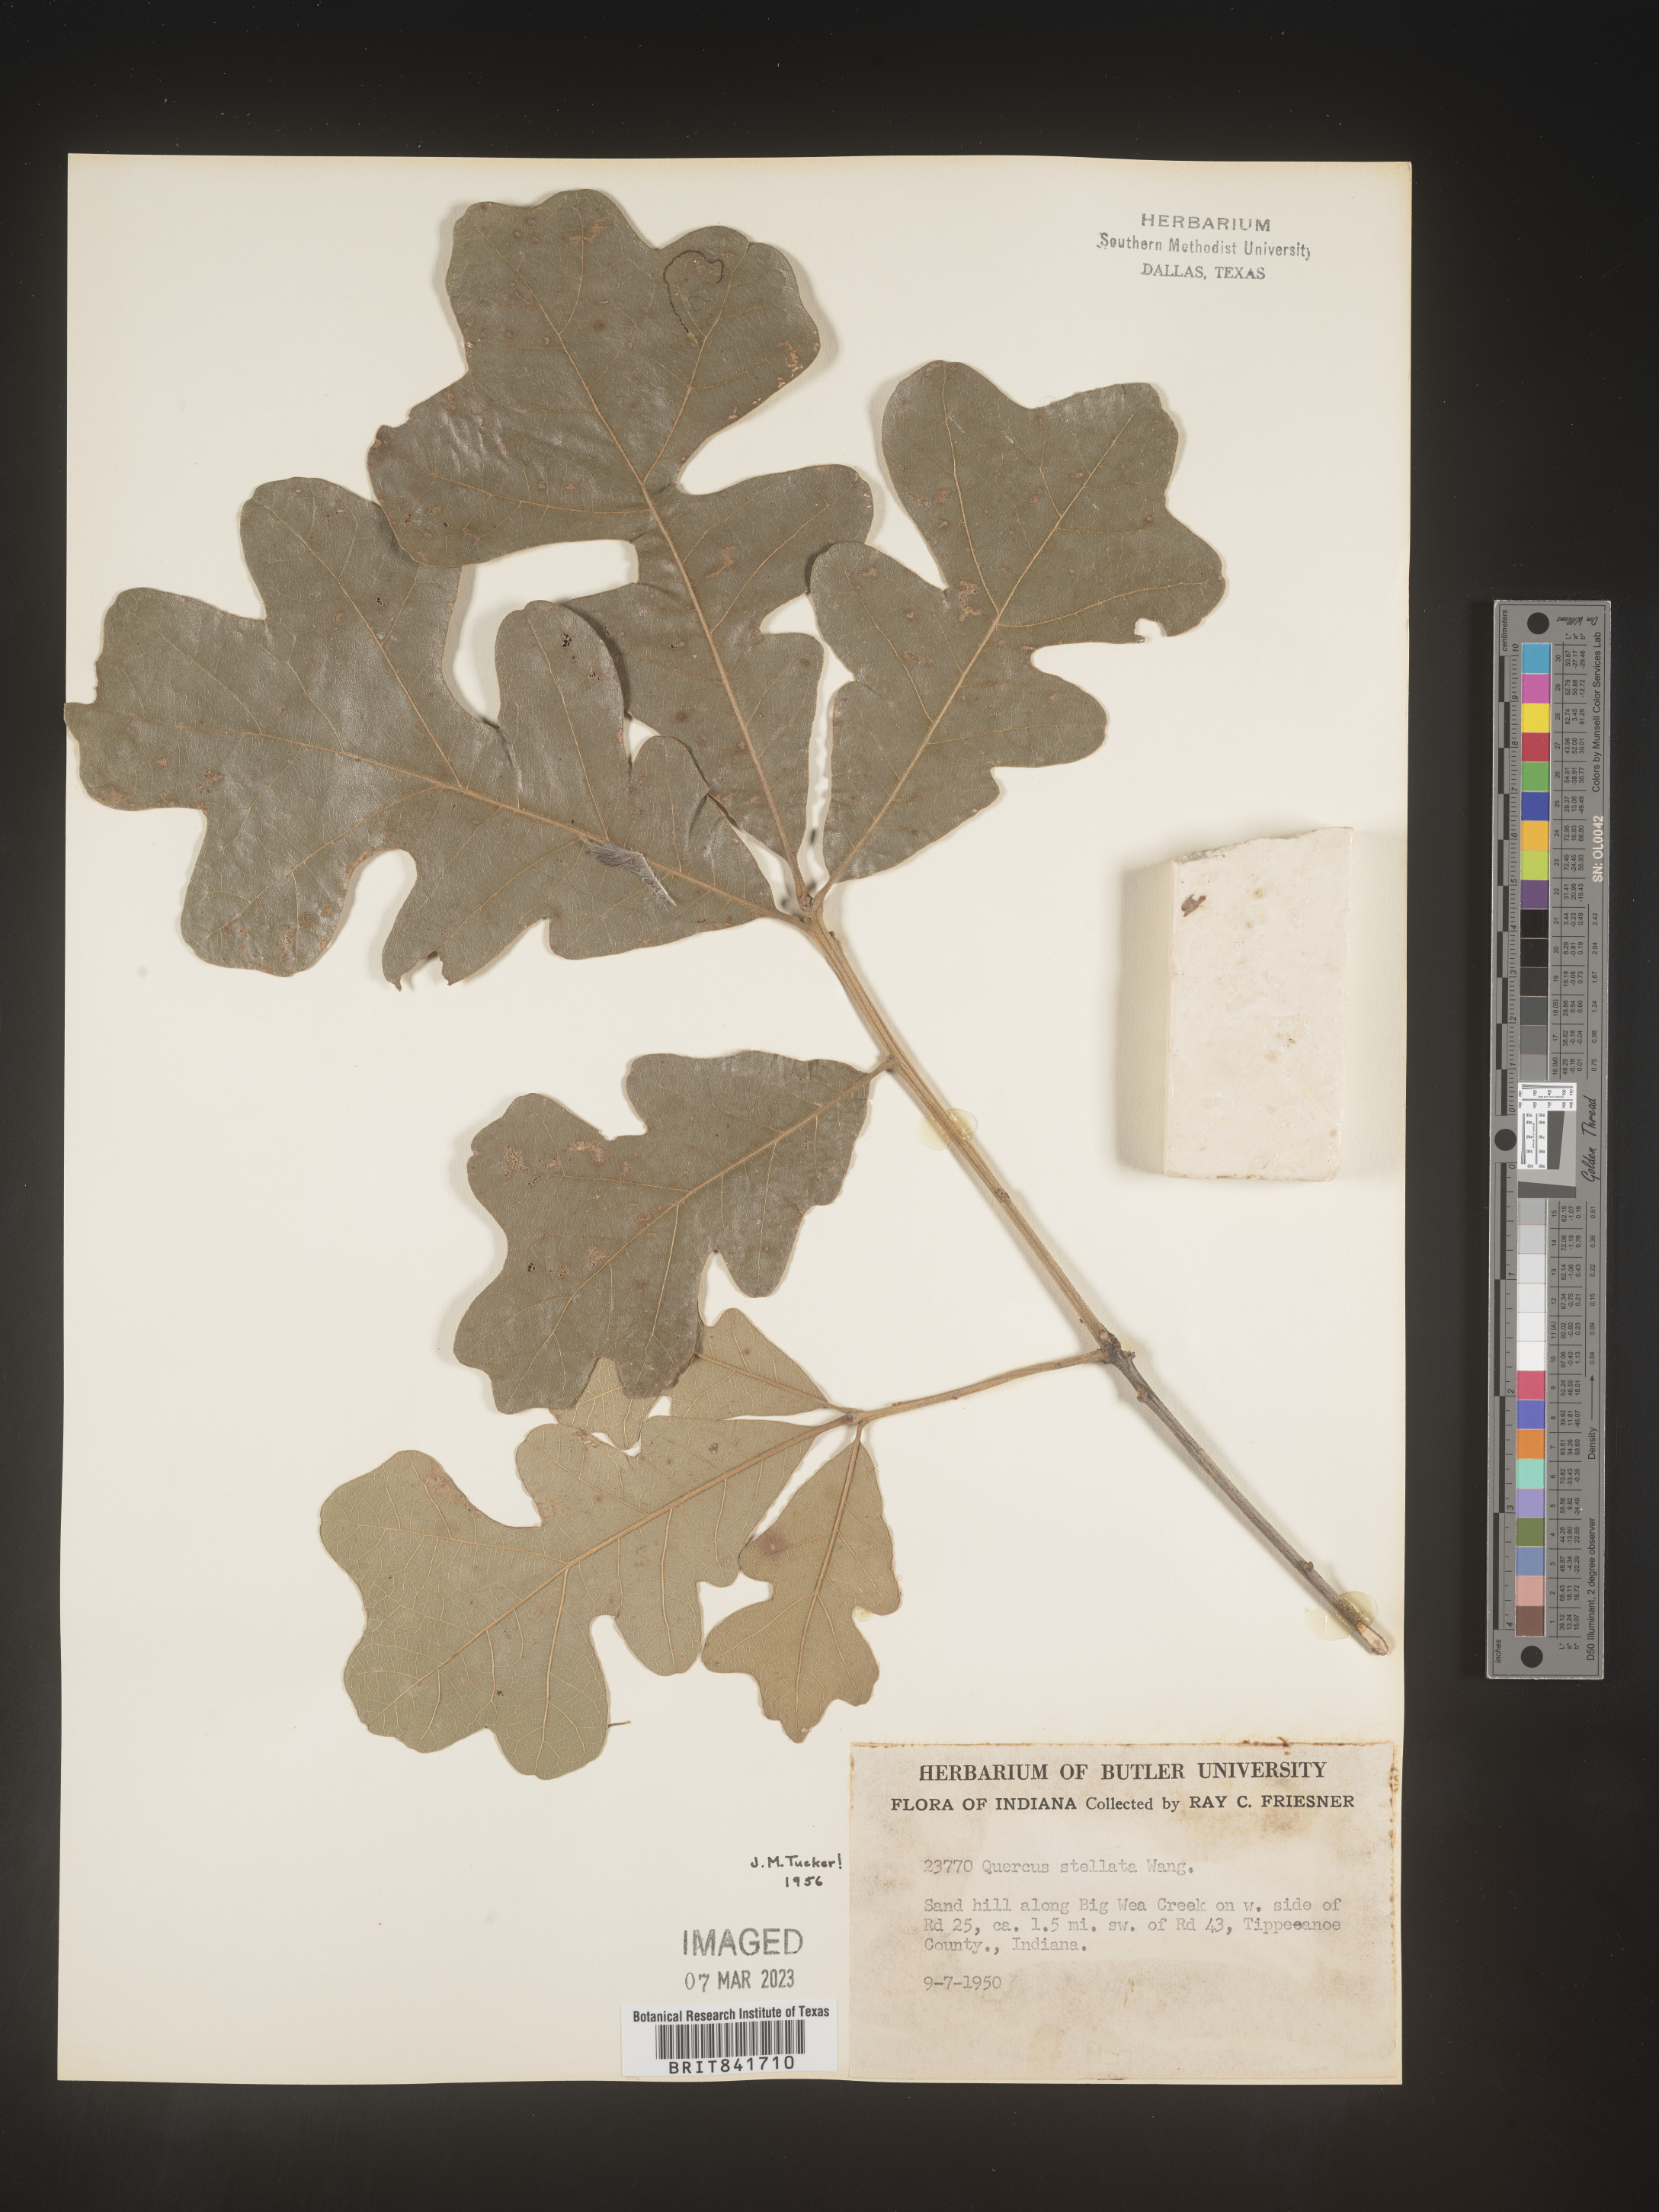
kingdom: Plantae
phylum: Tracheophyta
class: Magnoliopsida
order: Fagales
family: Fagaceae
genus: Quercus
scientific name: Quercus stellata
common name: Post oak
